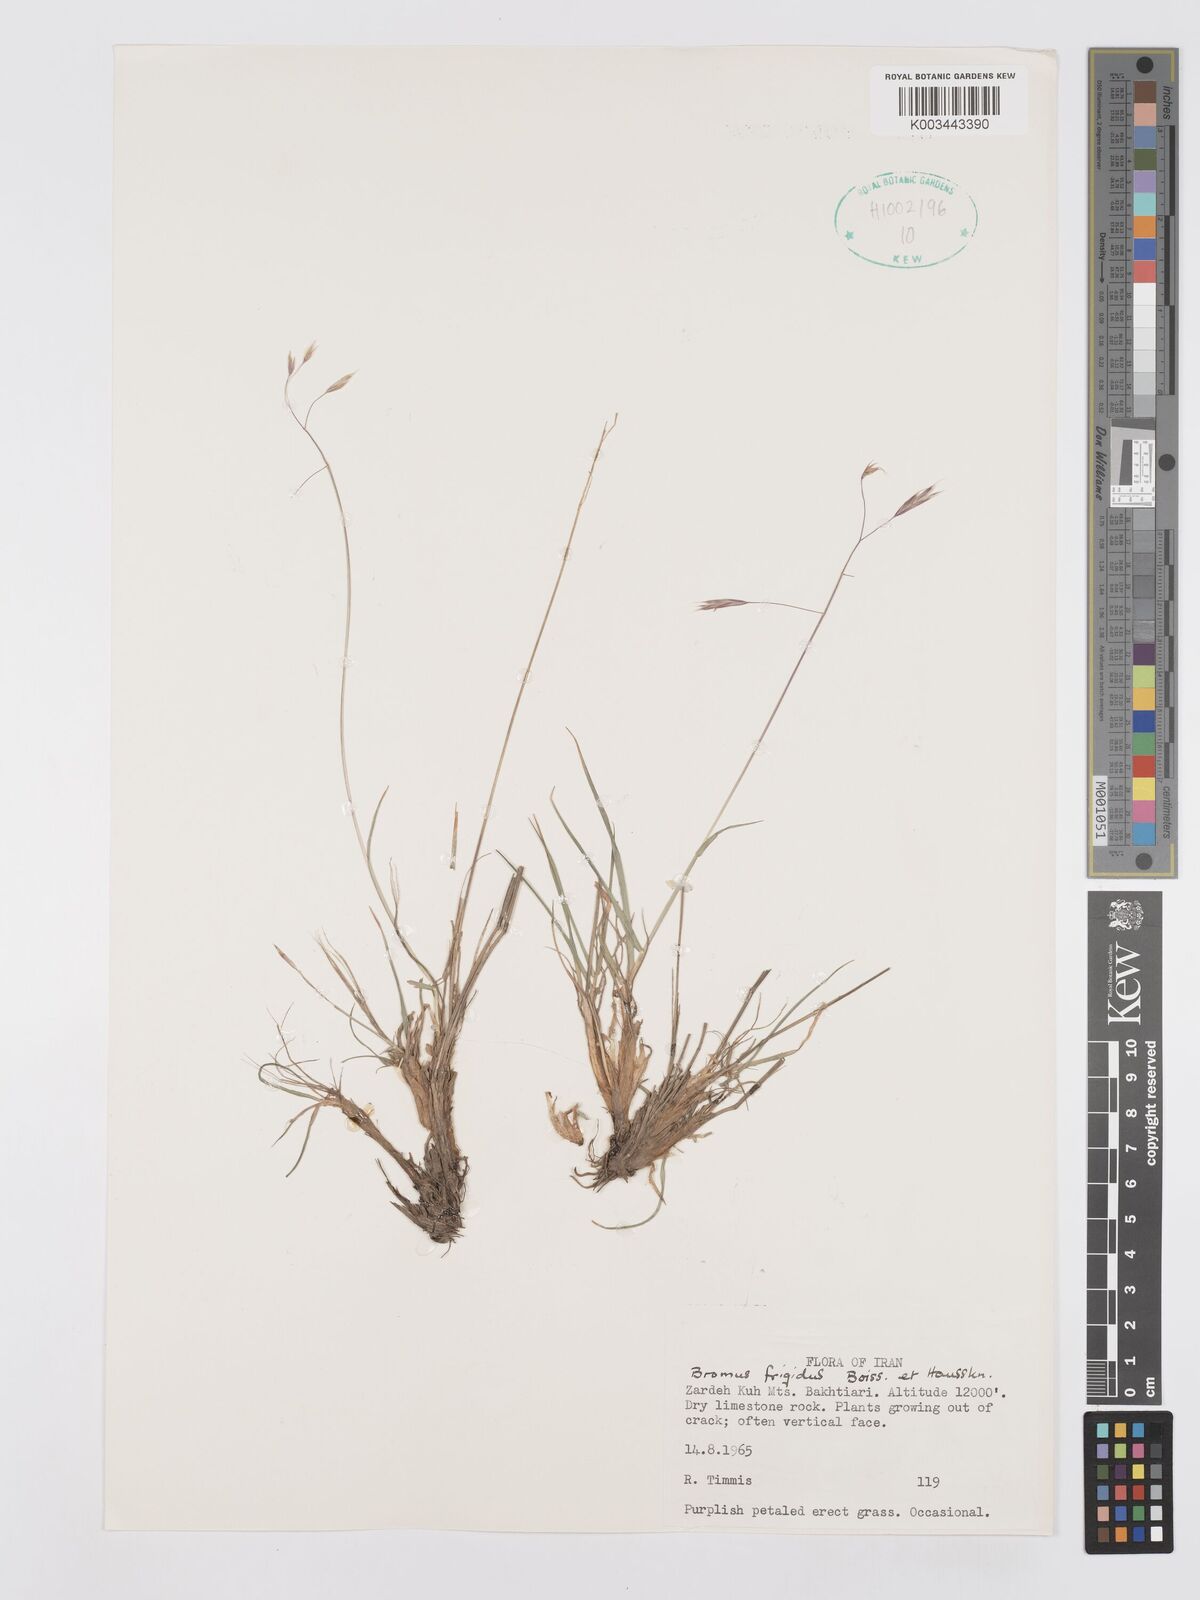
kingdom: Plantae
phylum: Tracheophyta
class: Liliopsida
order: Poales
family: Poaceae
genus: Bromus
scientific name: Bromus frigidus
